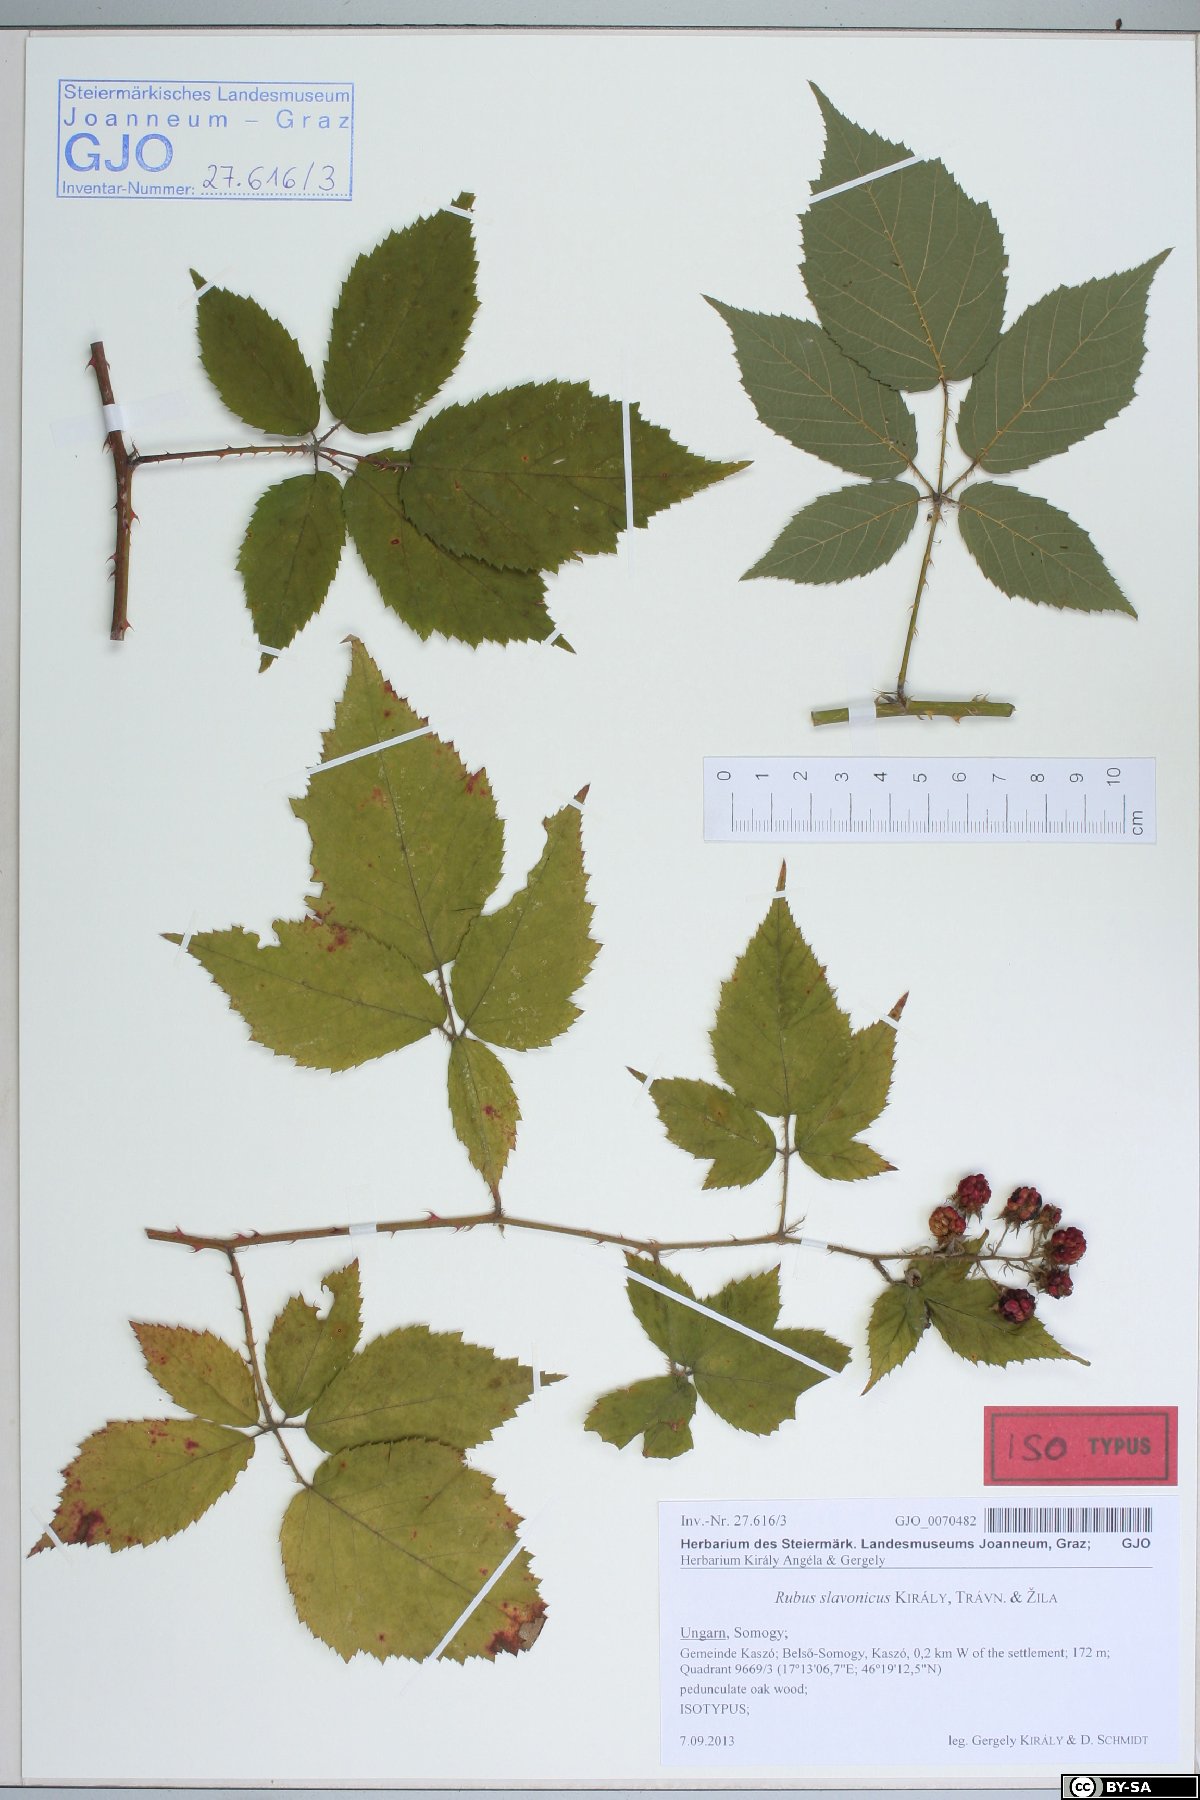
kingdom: Plantae
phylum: Tracheophyta
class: Magnoliopsida
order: Rosales
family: Rosaceae
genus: Rubus
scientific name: Rubus slavonicus
